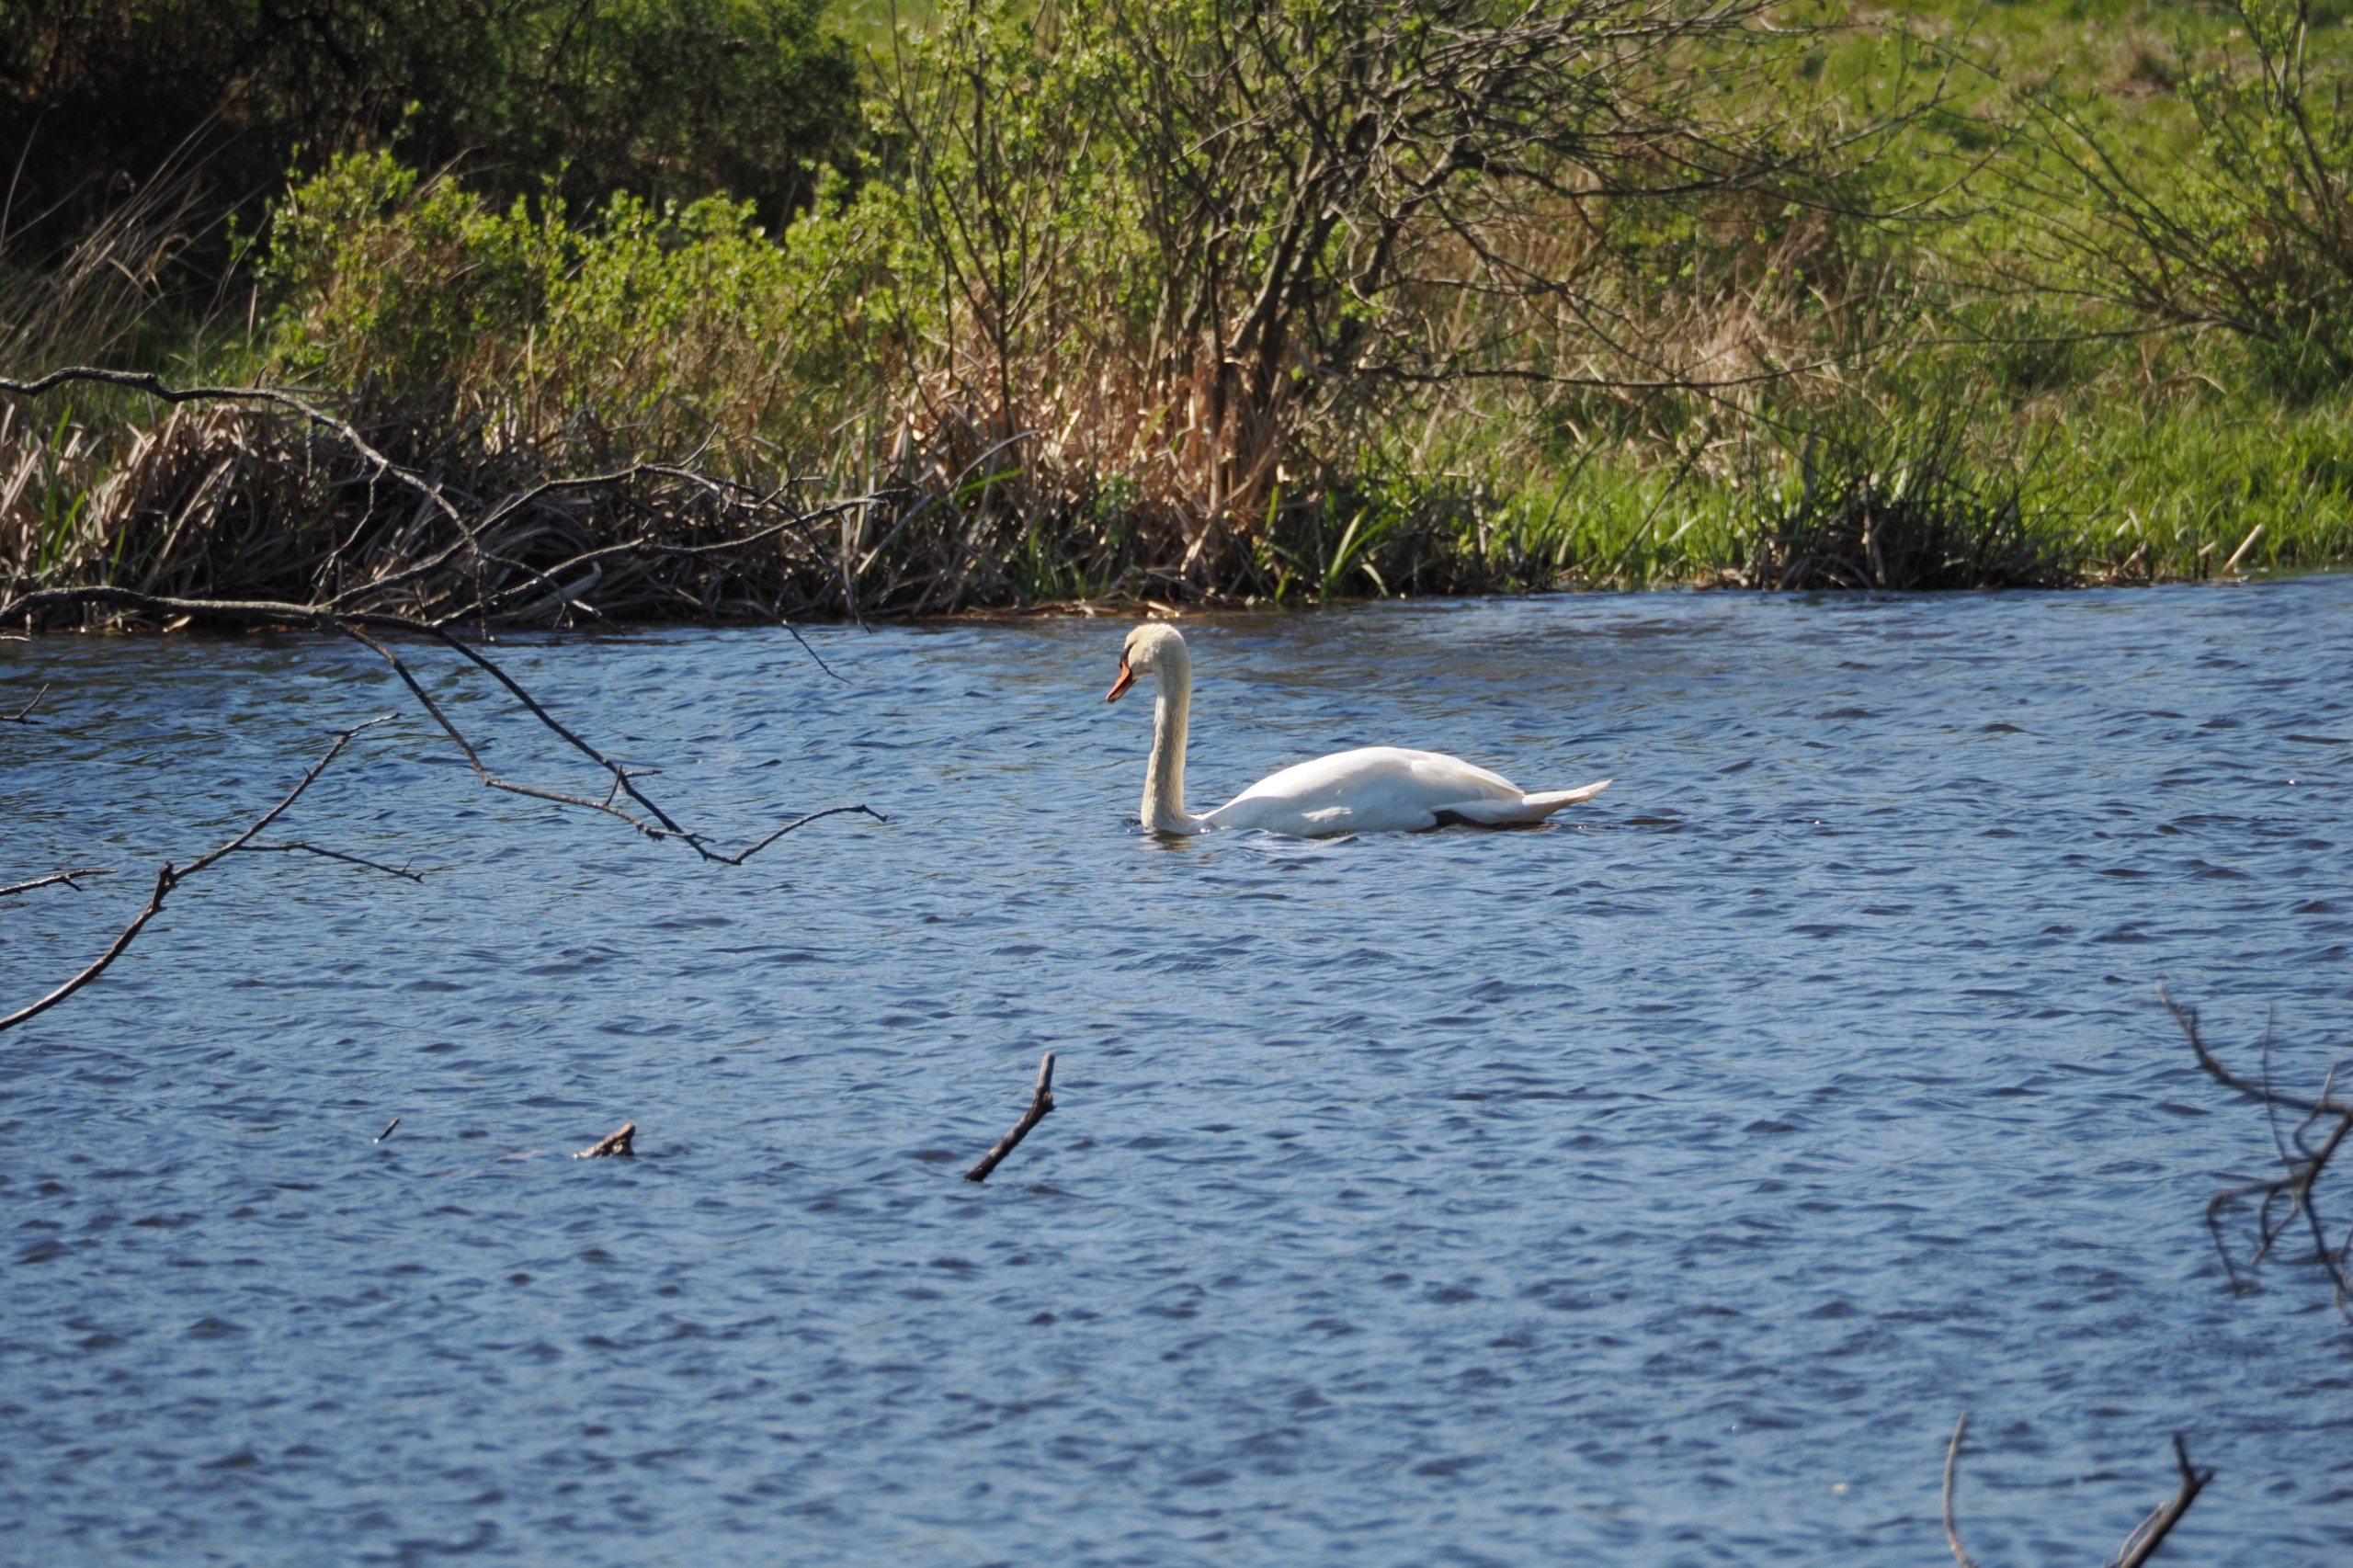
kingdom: Animalia
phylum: Chordata
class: Aves
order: Anseriformes
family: Anatidae
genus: Cygnus
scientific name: Cygnus olor
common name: Knopsvane
